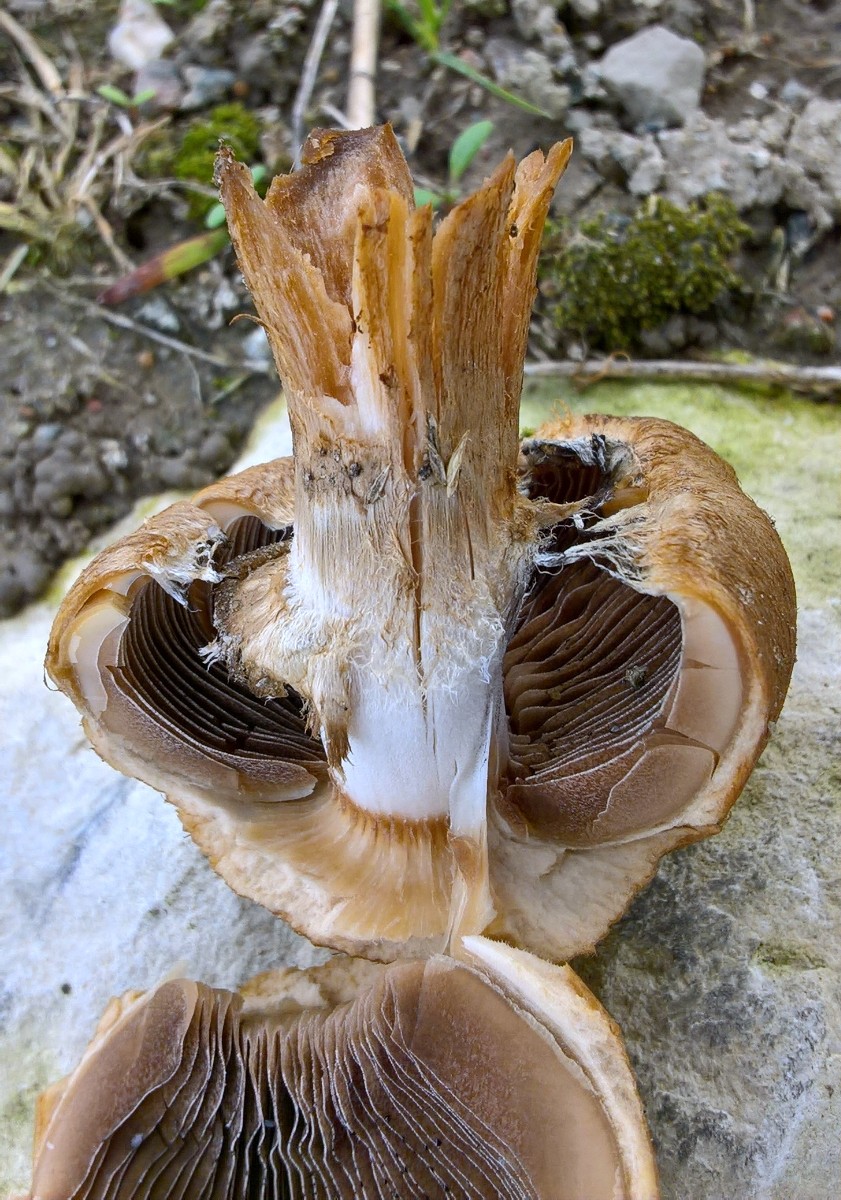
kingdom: Fungi
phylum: Basidiomycota
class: Agaricomycetes
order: Agaricales
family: Psathyrellaceae
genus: Lacrymaria
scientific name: Lacrymaria lacrymabunda
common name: grædende mørkhat
